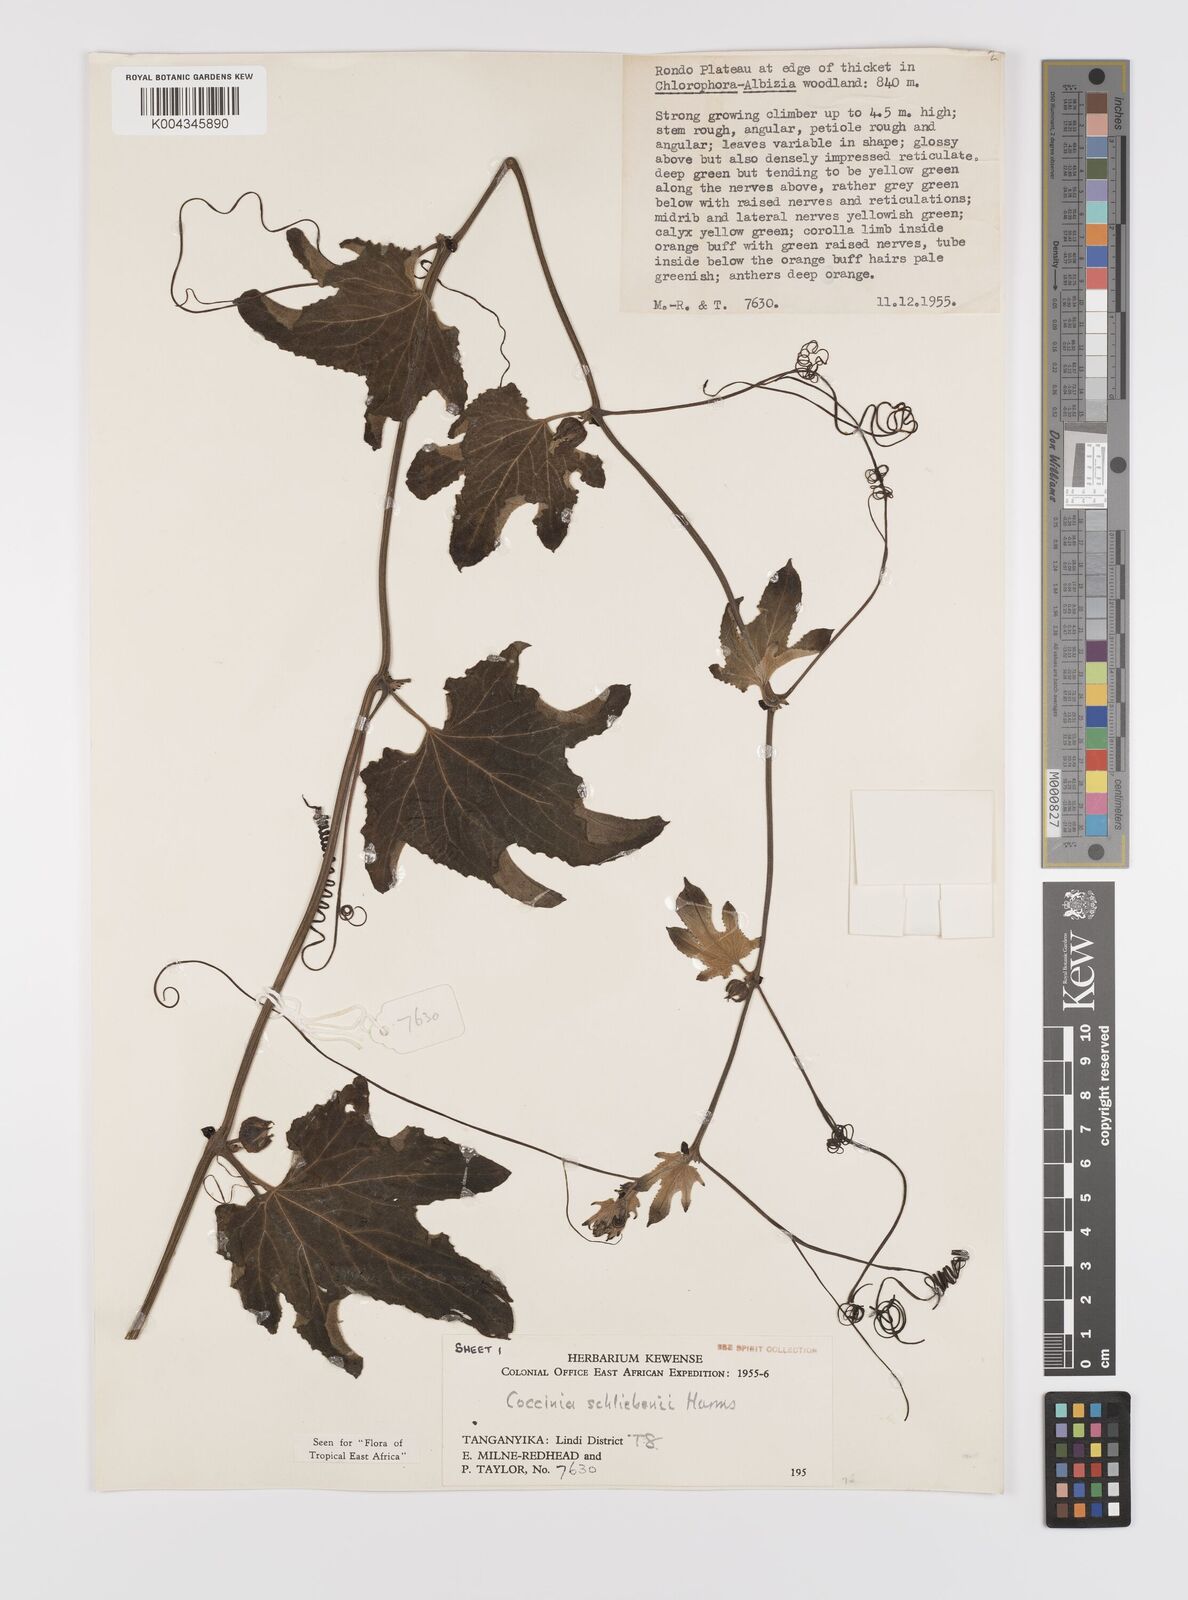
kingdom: Plantae
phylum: Tracheophyta
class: Magnoliopsida
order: Cucurbitales
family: Cucurbitaceae
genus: Coccinia
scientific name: Coccinia schliebenii
